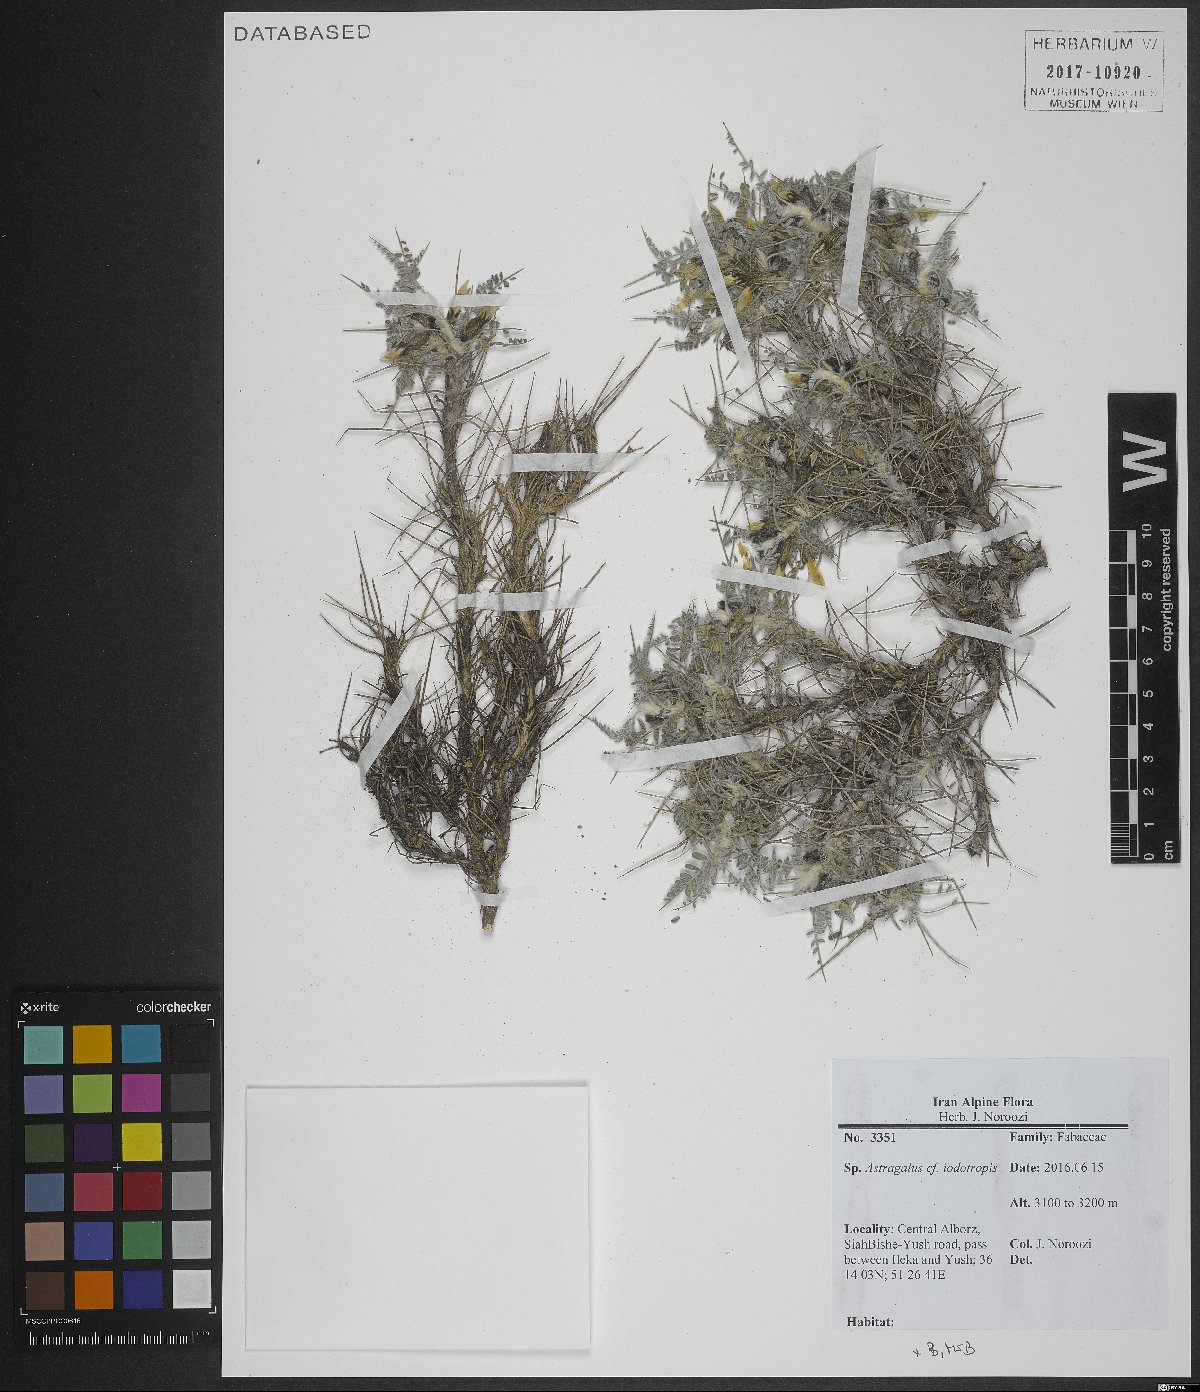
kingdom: Plantae
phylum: Tracheophyta
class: Magnoliopsida
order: Fabales
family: Fabaceae
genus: Astragalus
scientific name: Astragalus iodotropis
